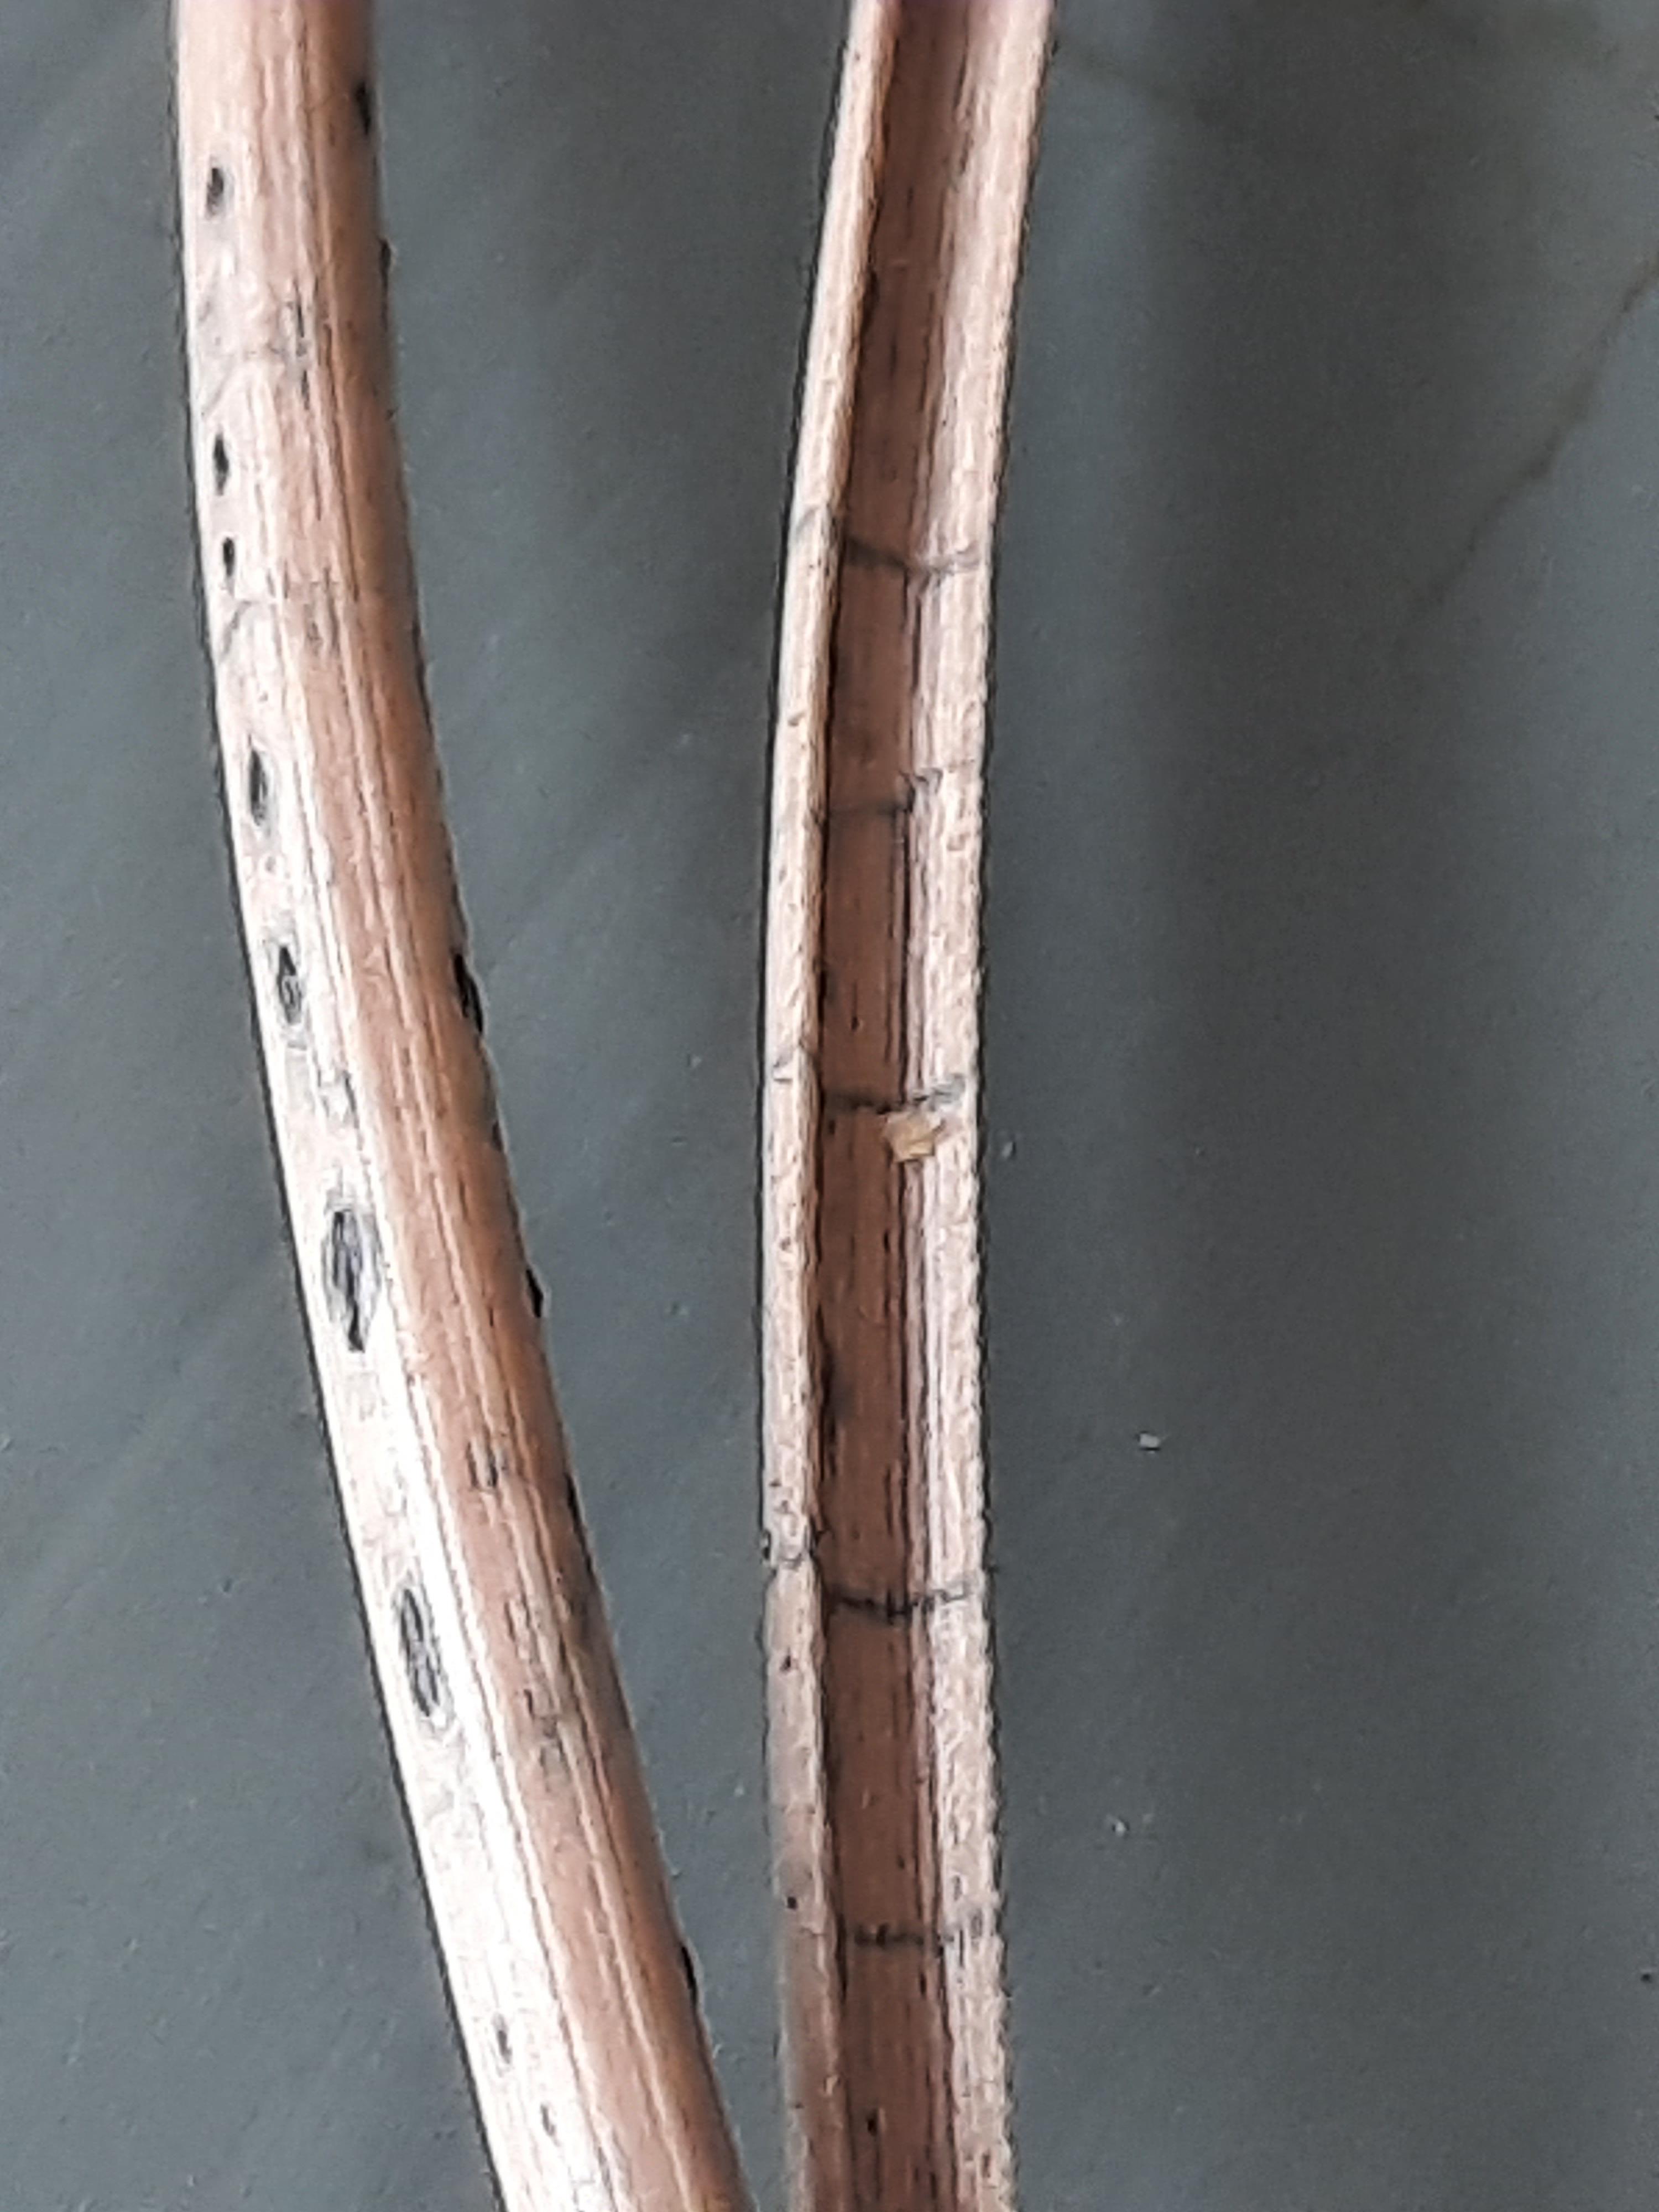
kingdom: Fungi
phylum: Ascomycota
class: Leotiomycetes
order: Rhytismatales
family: Rhytismataceae
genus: Lophodermium
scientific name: Lophodermium pinastri
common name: fyrre-fureplet
